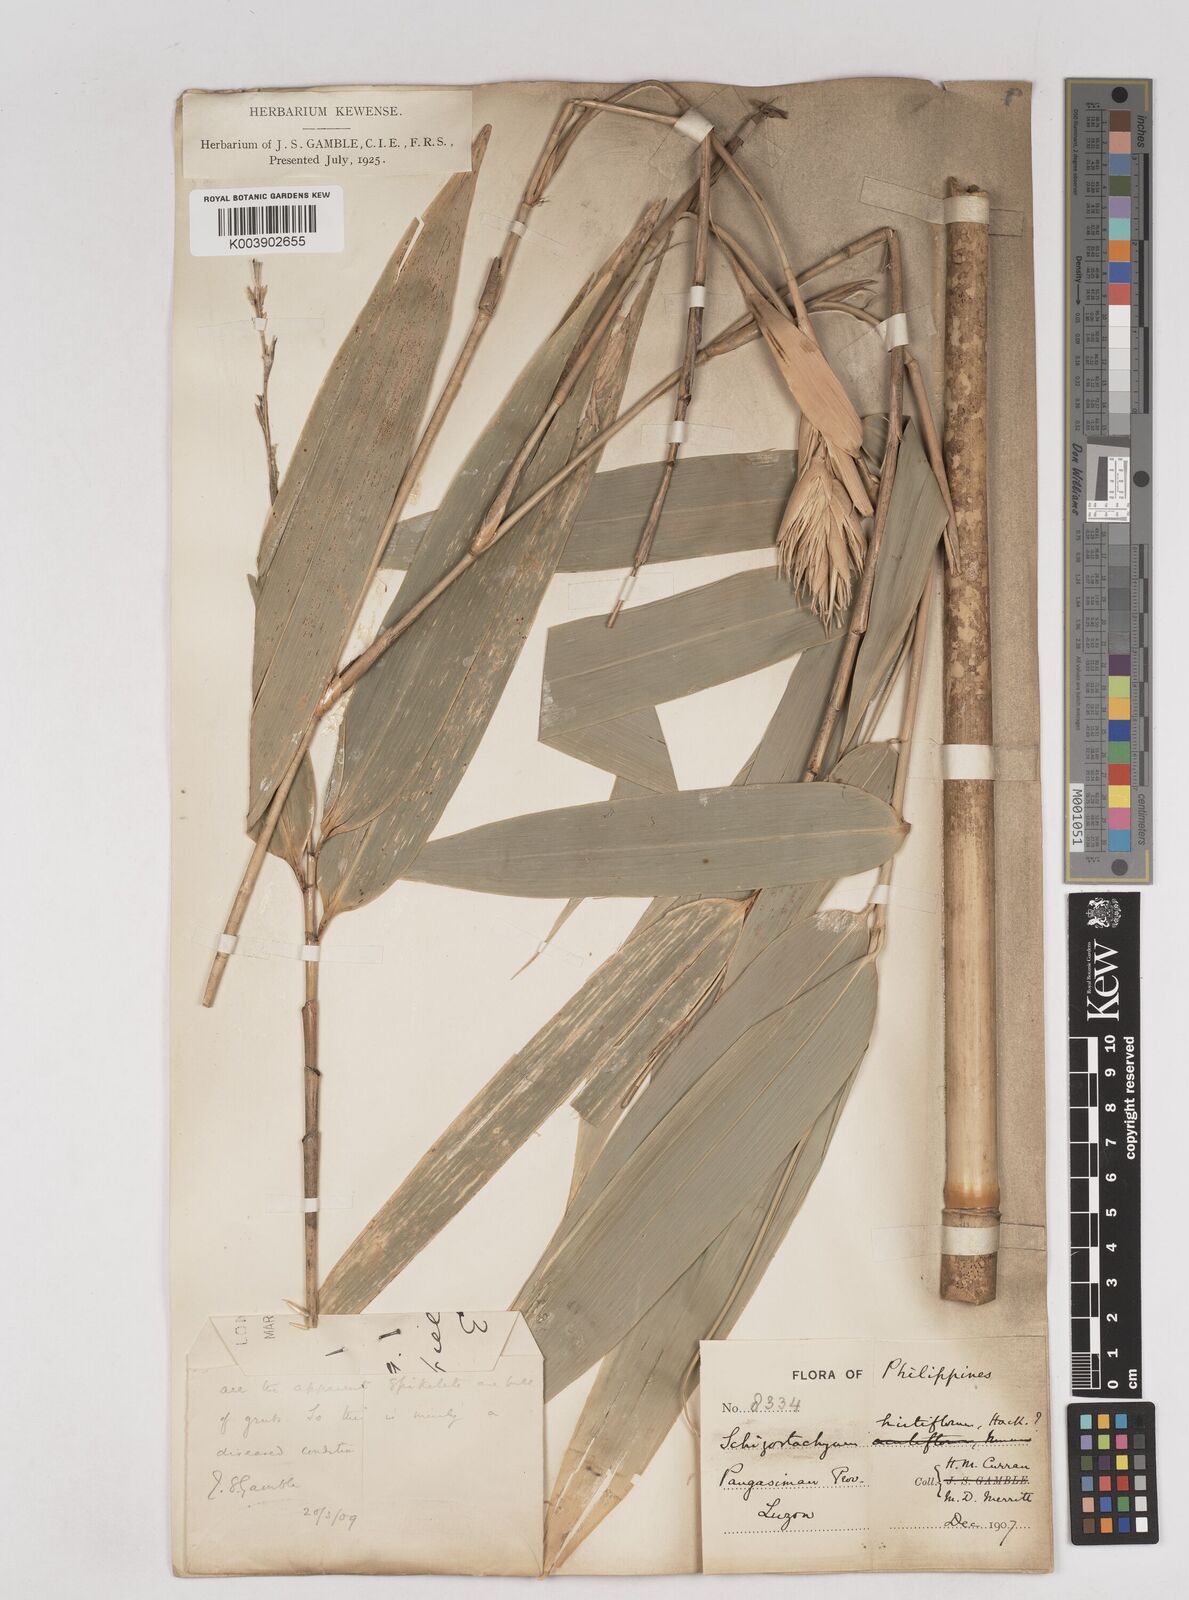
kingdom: Plantae
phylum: Tracheophyta
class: Liliopsida
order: Poales
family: Poaceae
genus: Schizostachyum
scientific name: Schizostachyum lumampao
